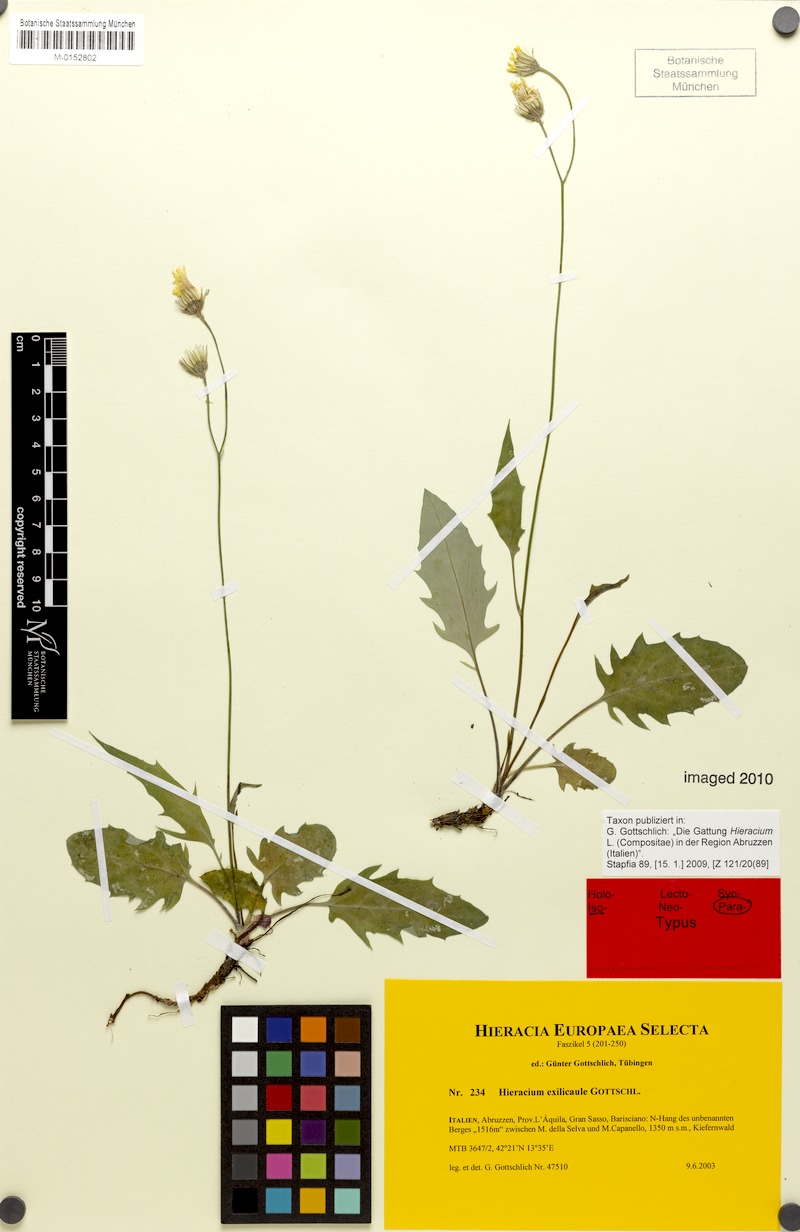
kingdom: Plantae
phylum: Tracheophyta
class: Magnoliopsida
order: Asterales
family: Asteraceae
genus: Hieracium
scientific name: Hieracium exilicaule
